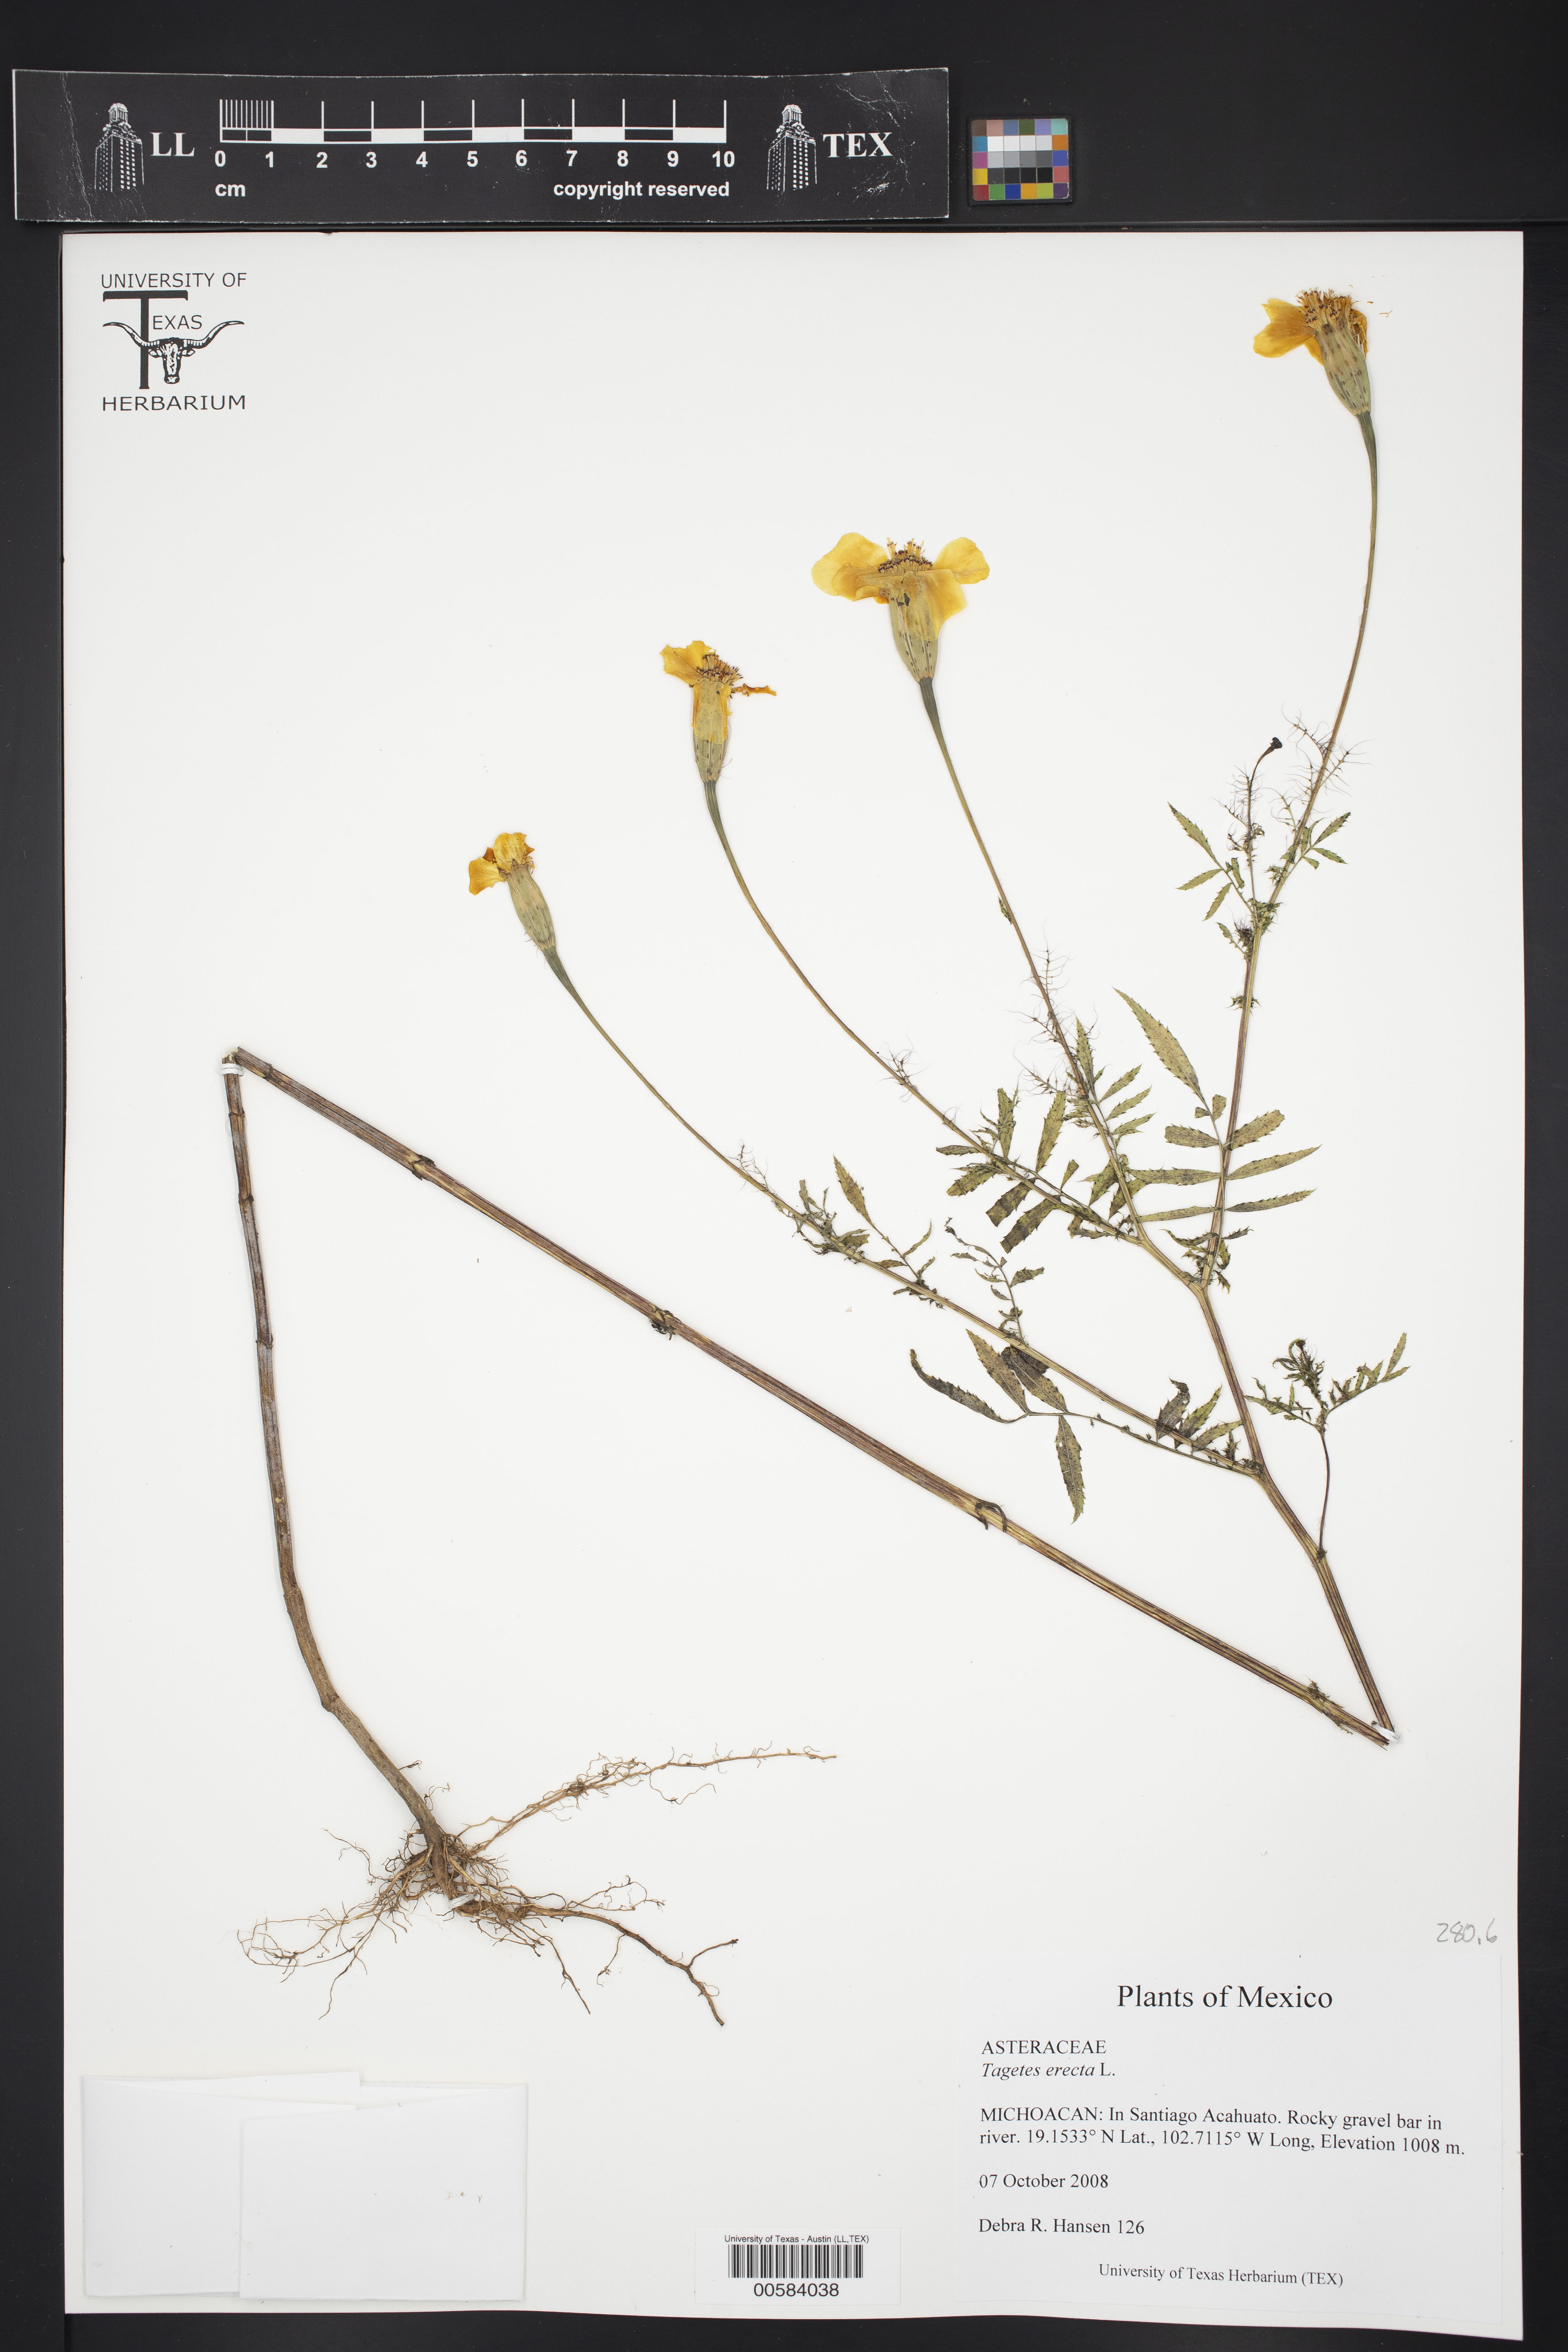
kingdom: Plantae
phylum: Tracheophyta
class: Magnoliopsida
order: Asterales
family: Asteraceae
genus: Tagetes
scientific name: Tagetes erecta
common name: African marigold
